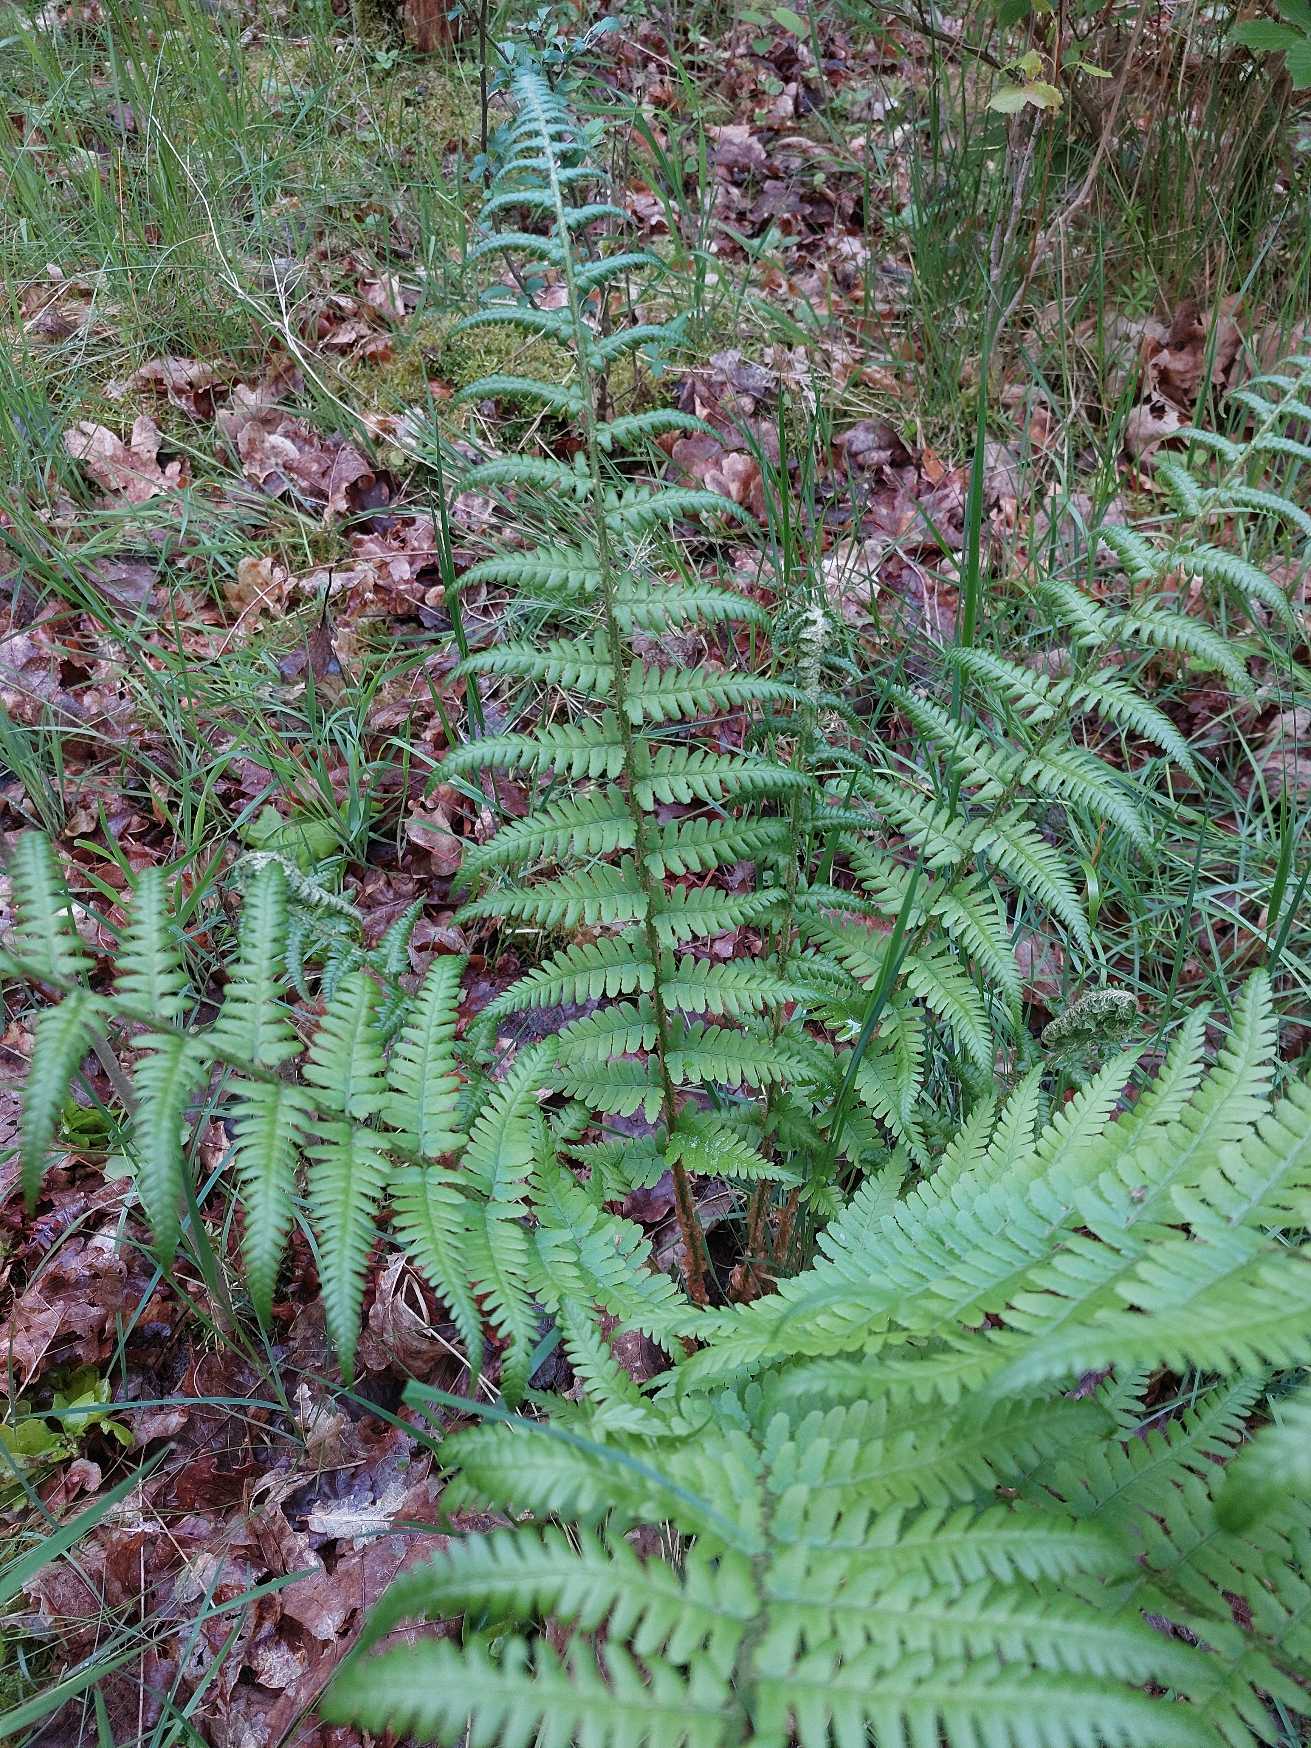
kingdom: Plantae
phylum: Tracheophyta
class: Polypodiopsida
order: Polypodiales
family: Dryopteridaceae
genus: Dryopteris
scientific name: Dryopteris filix-mas
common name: Almindelig mangeløv
